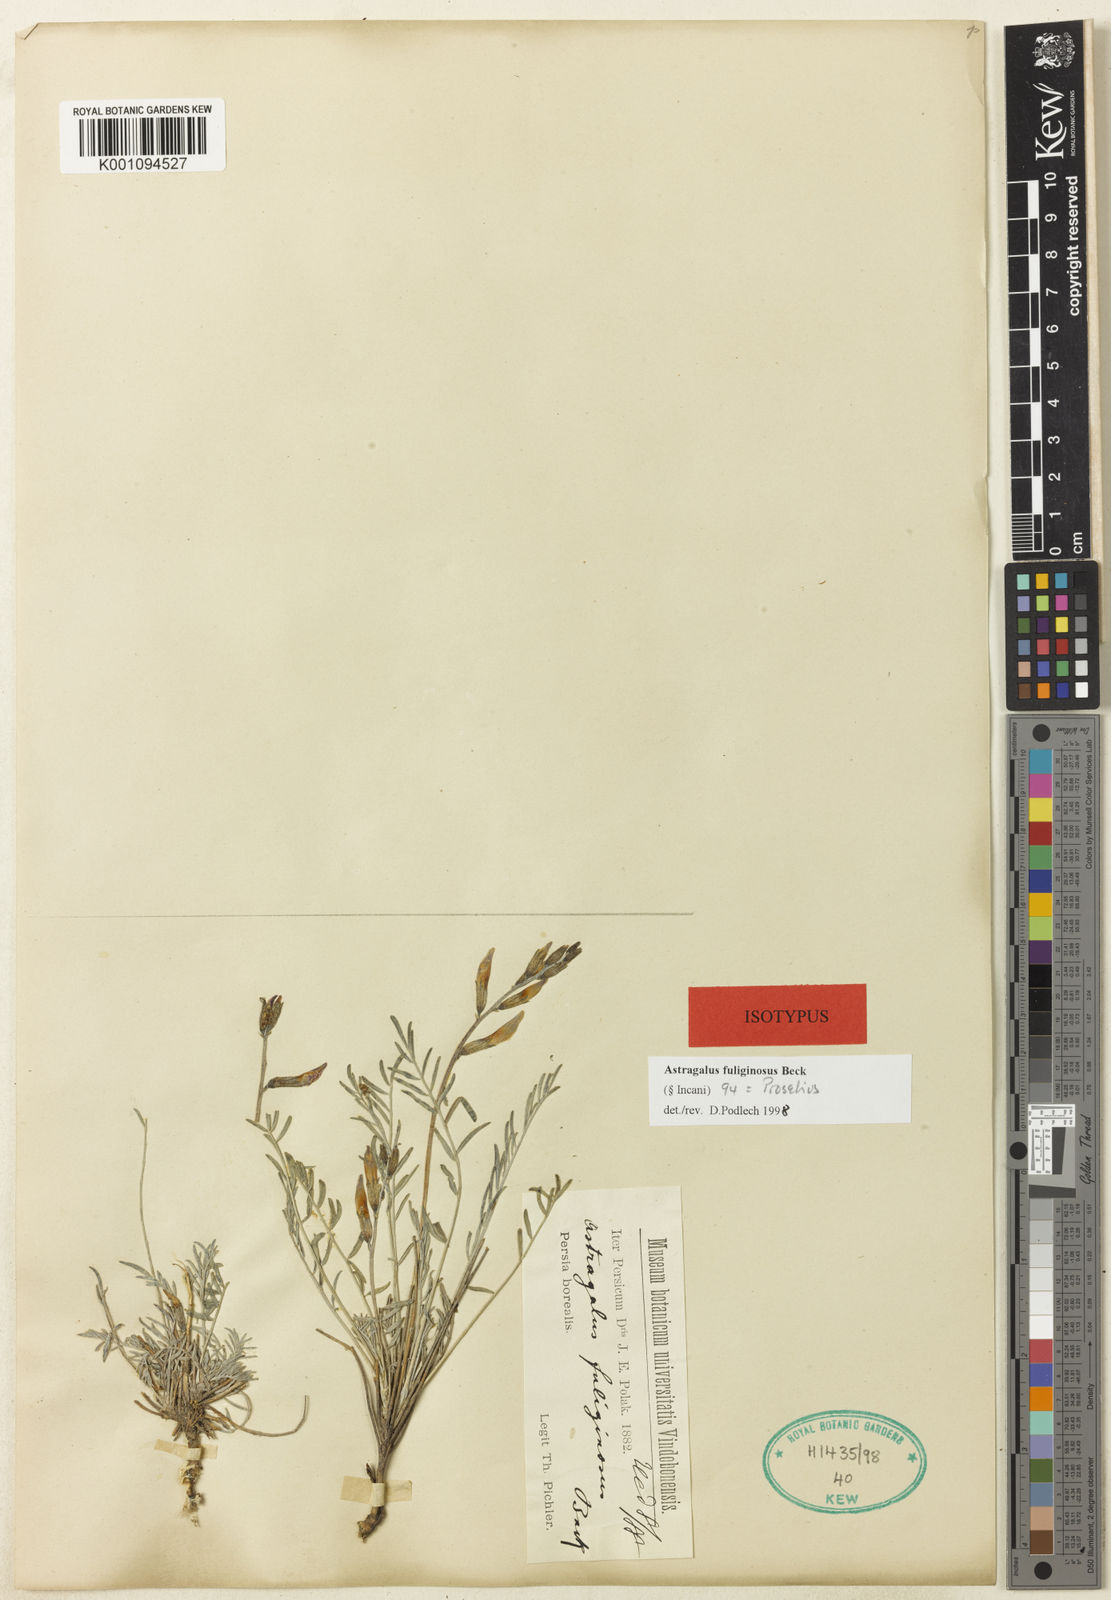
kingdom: Plantae
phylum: Tracheophyta
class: Magnoliopsida
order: Fabales
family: Fabaceae
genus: Astragalus
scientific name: Astragalus
